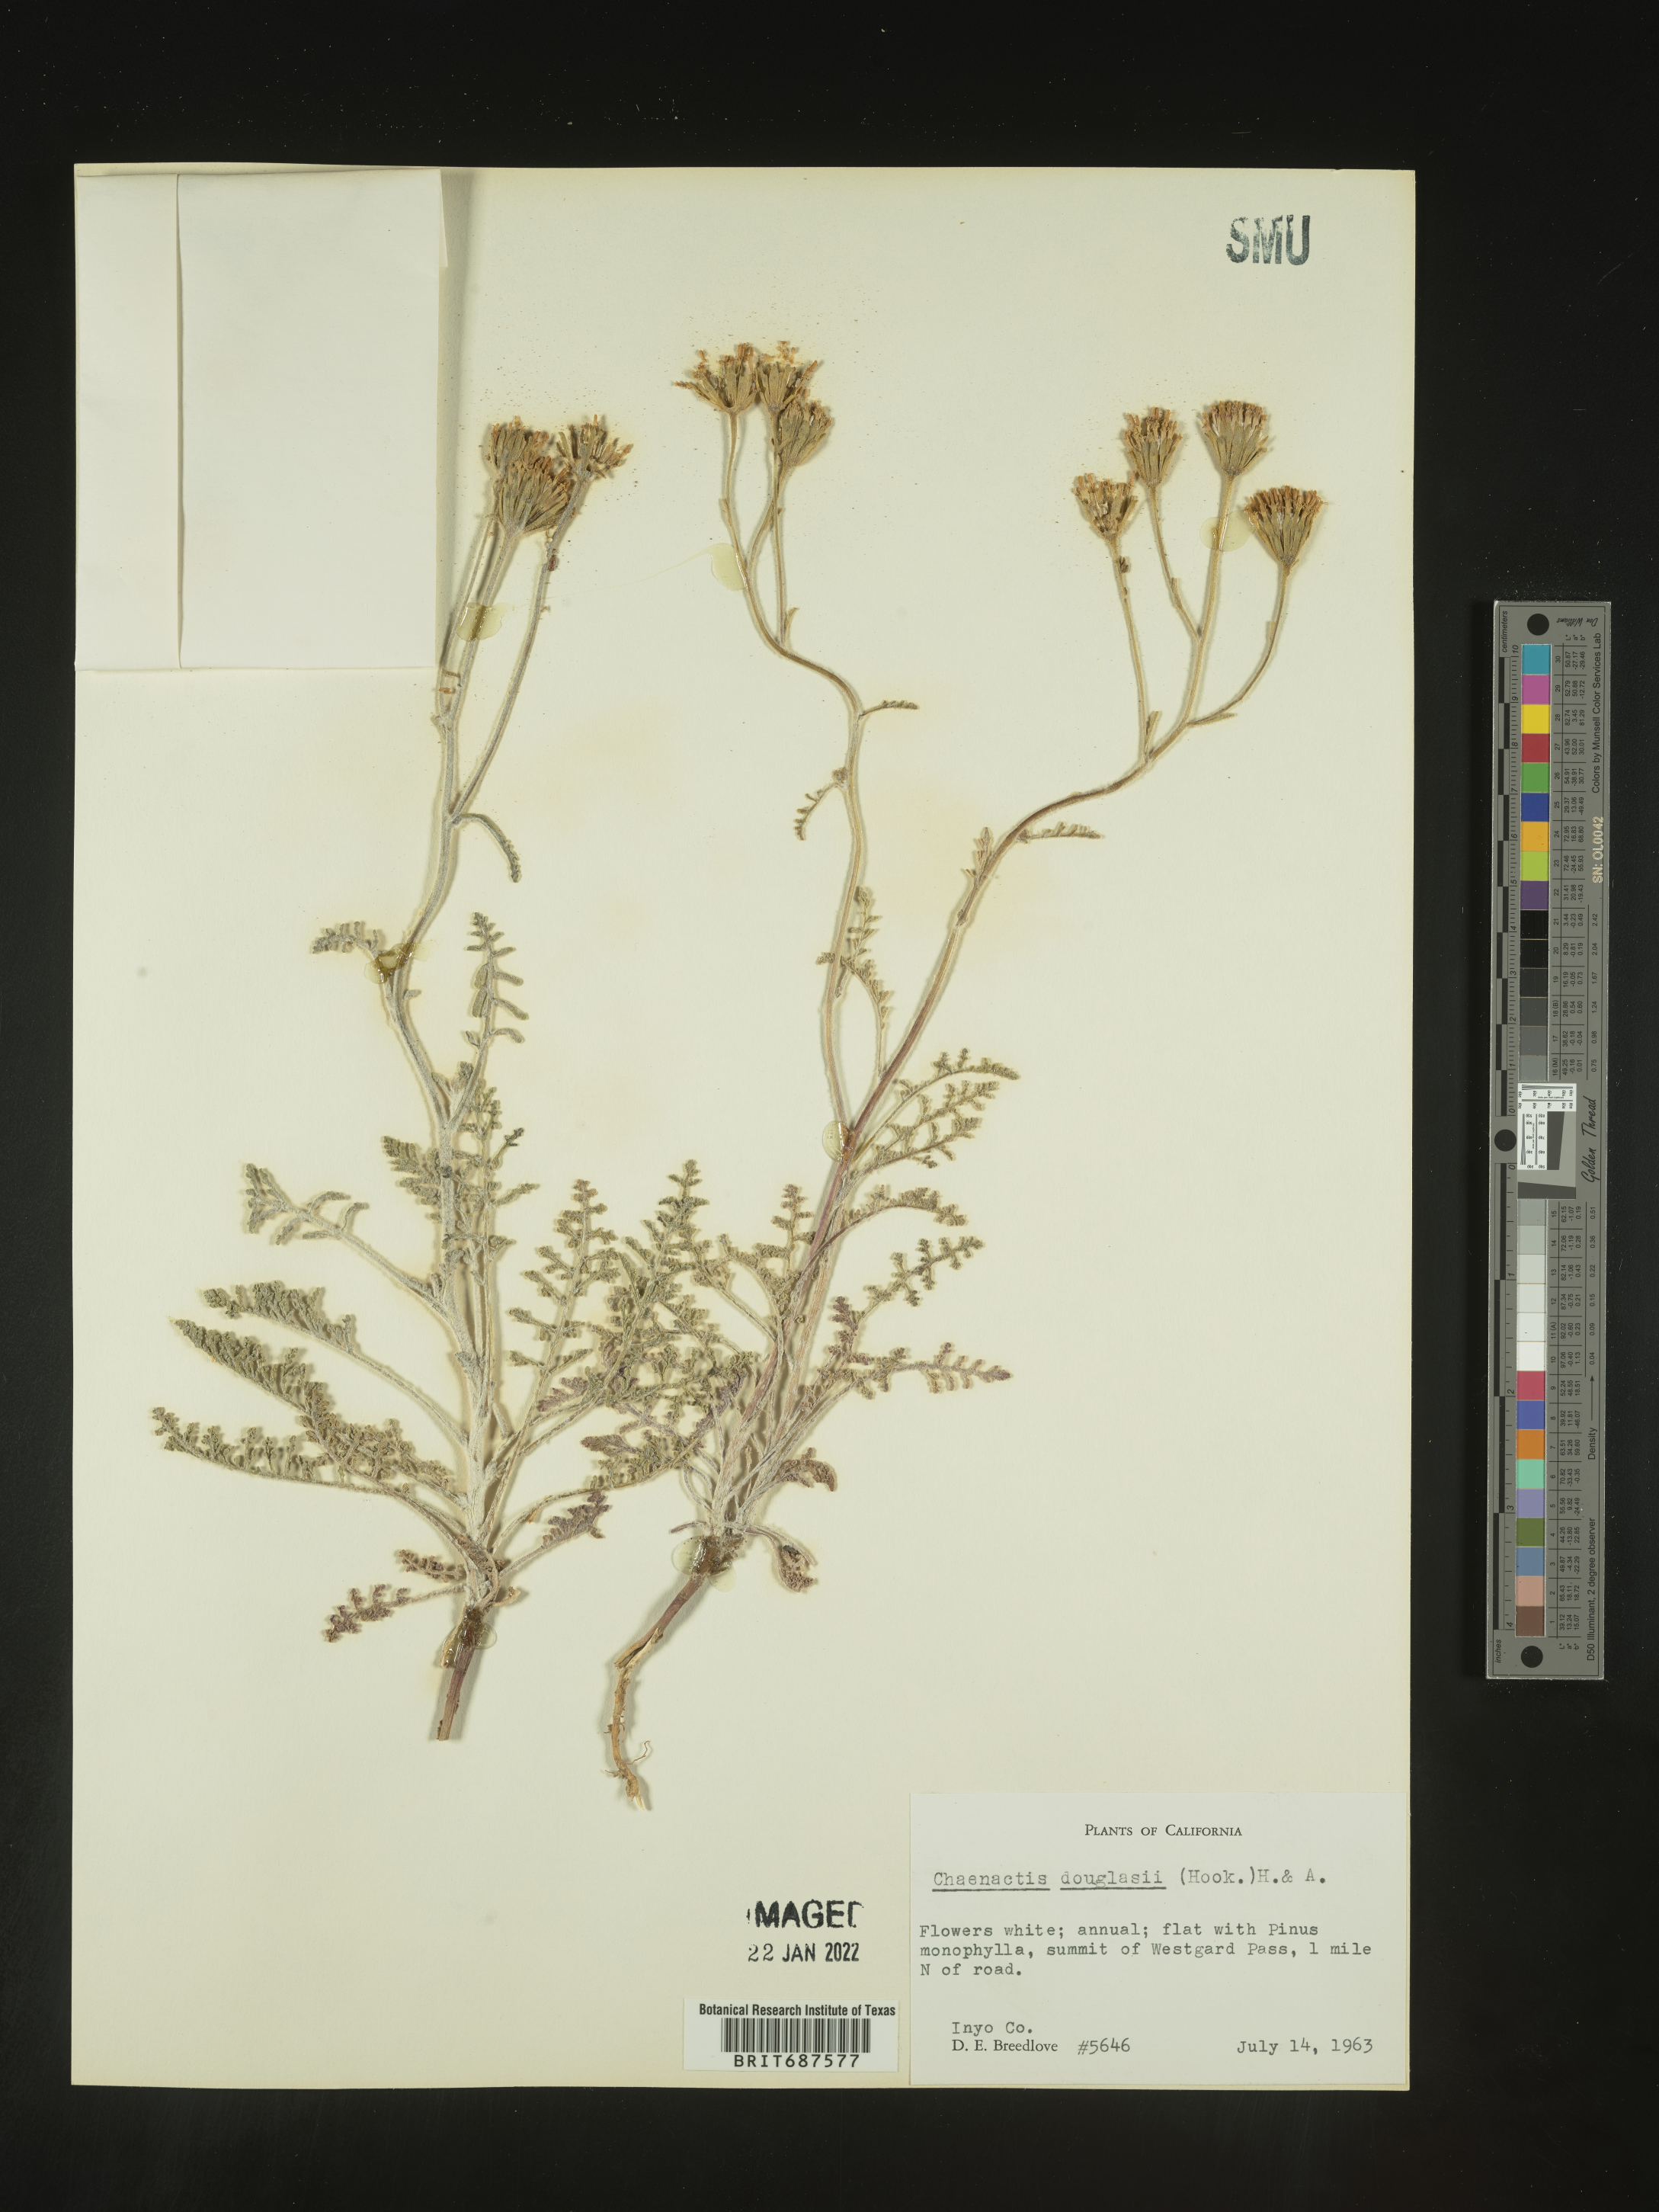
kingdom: Plantae
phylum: Tracheophyta
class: Magnoliopsida
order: Asterales
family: Asteraceae
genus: Chaenactis
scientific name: Chaenactis douglasii
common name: Hoary pincushion
